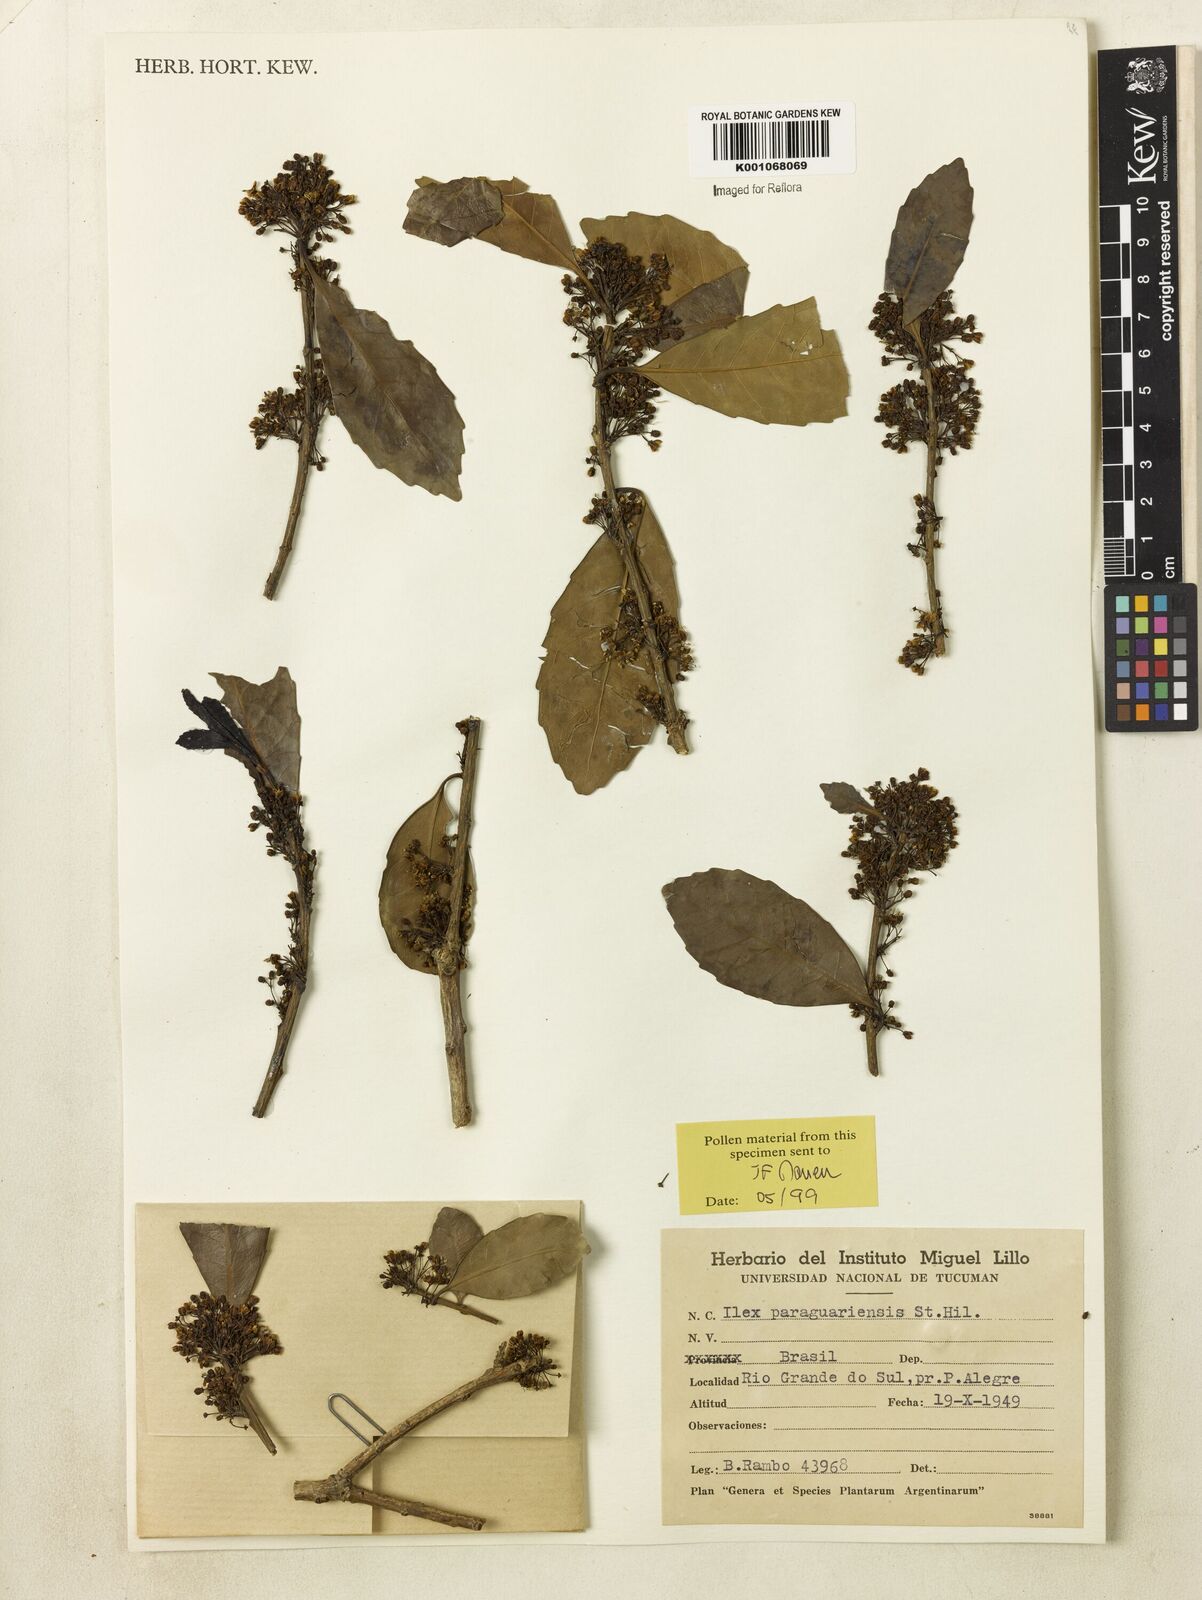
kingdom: Plantae
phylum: Tracheophyta
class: Magnoliopsida
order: Aquifoliales
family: Aquifoliaceae
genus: Ilex
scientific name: Ilex paraguariensis
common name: Paraguay tea
